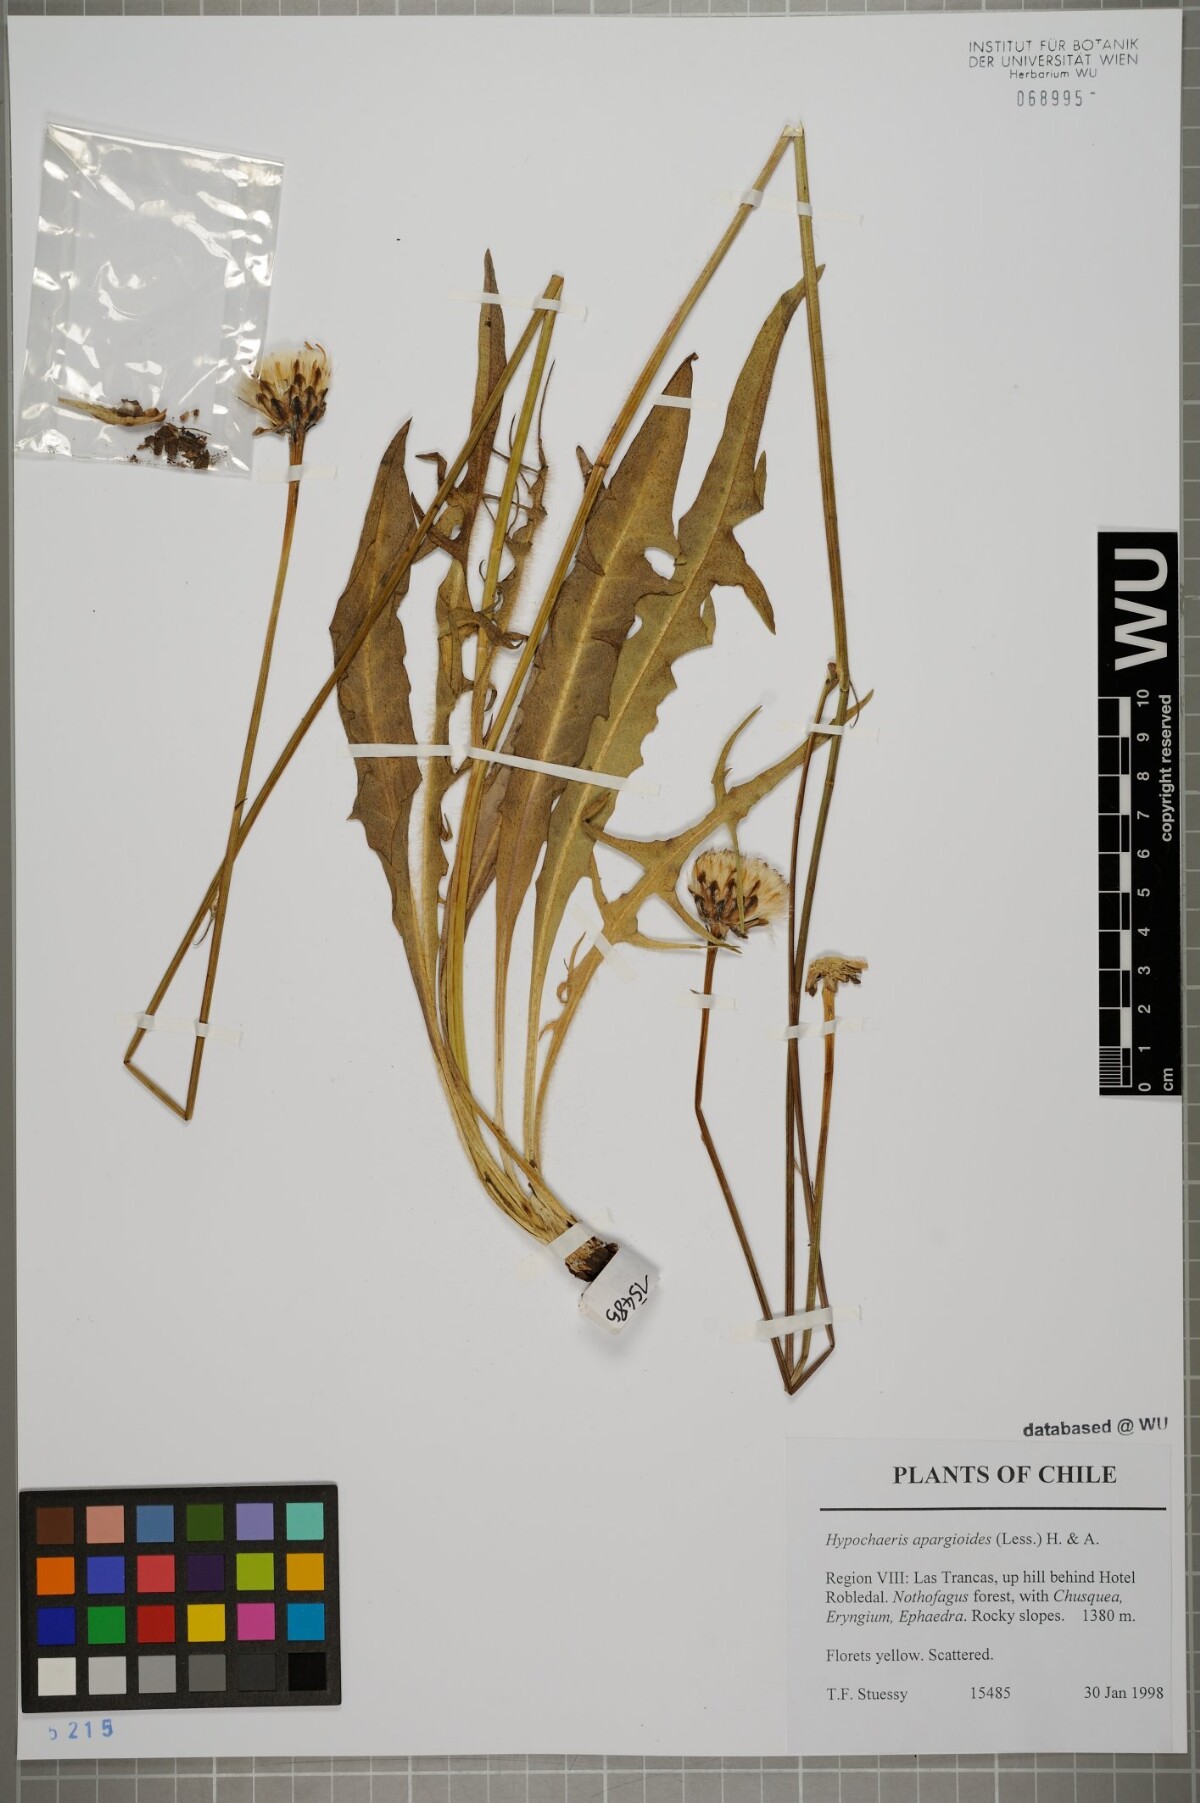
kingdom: Plantae
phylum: Tracheophyta
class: Magnoliopsida
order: Asterales
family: Asteraceae
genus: Hypochaeris
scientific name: Hypochaeris apargioides
